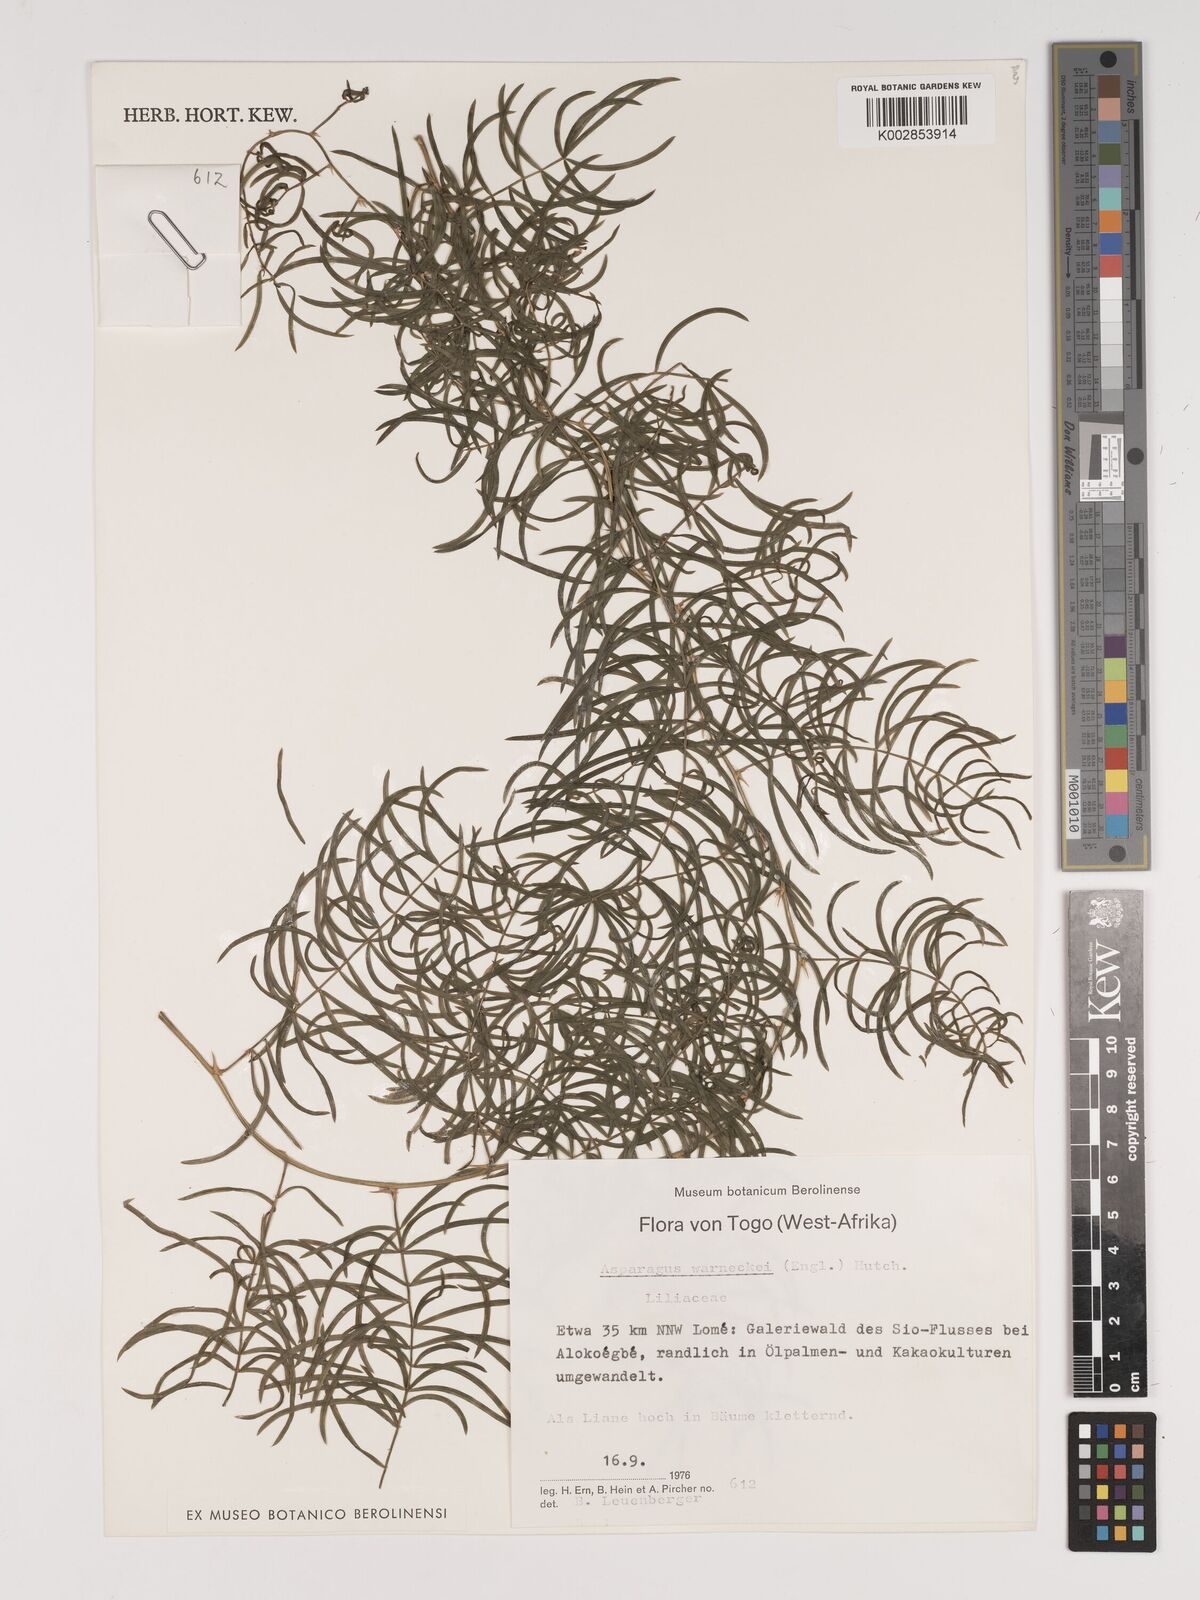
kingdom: Plantae
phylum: Tracheophyta
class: Liliopsida
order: Asparagales
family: Asparagaceae
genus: Asparagus
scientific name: Asparagus warneckei
